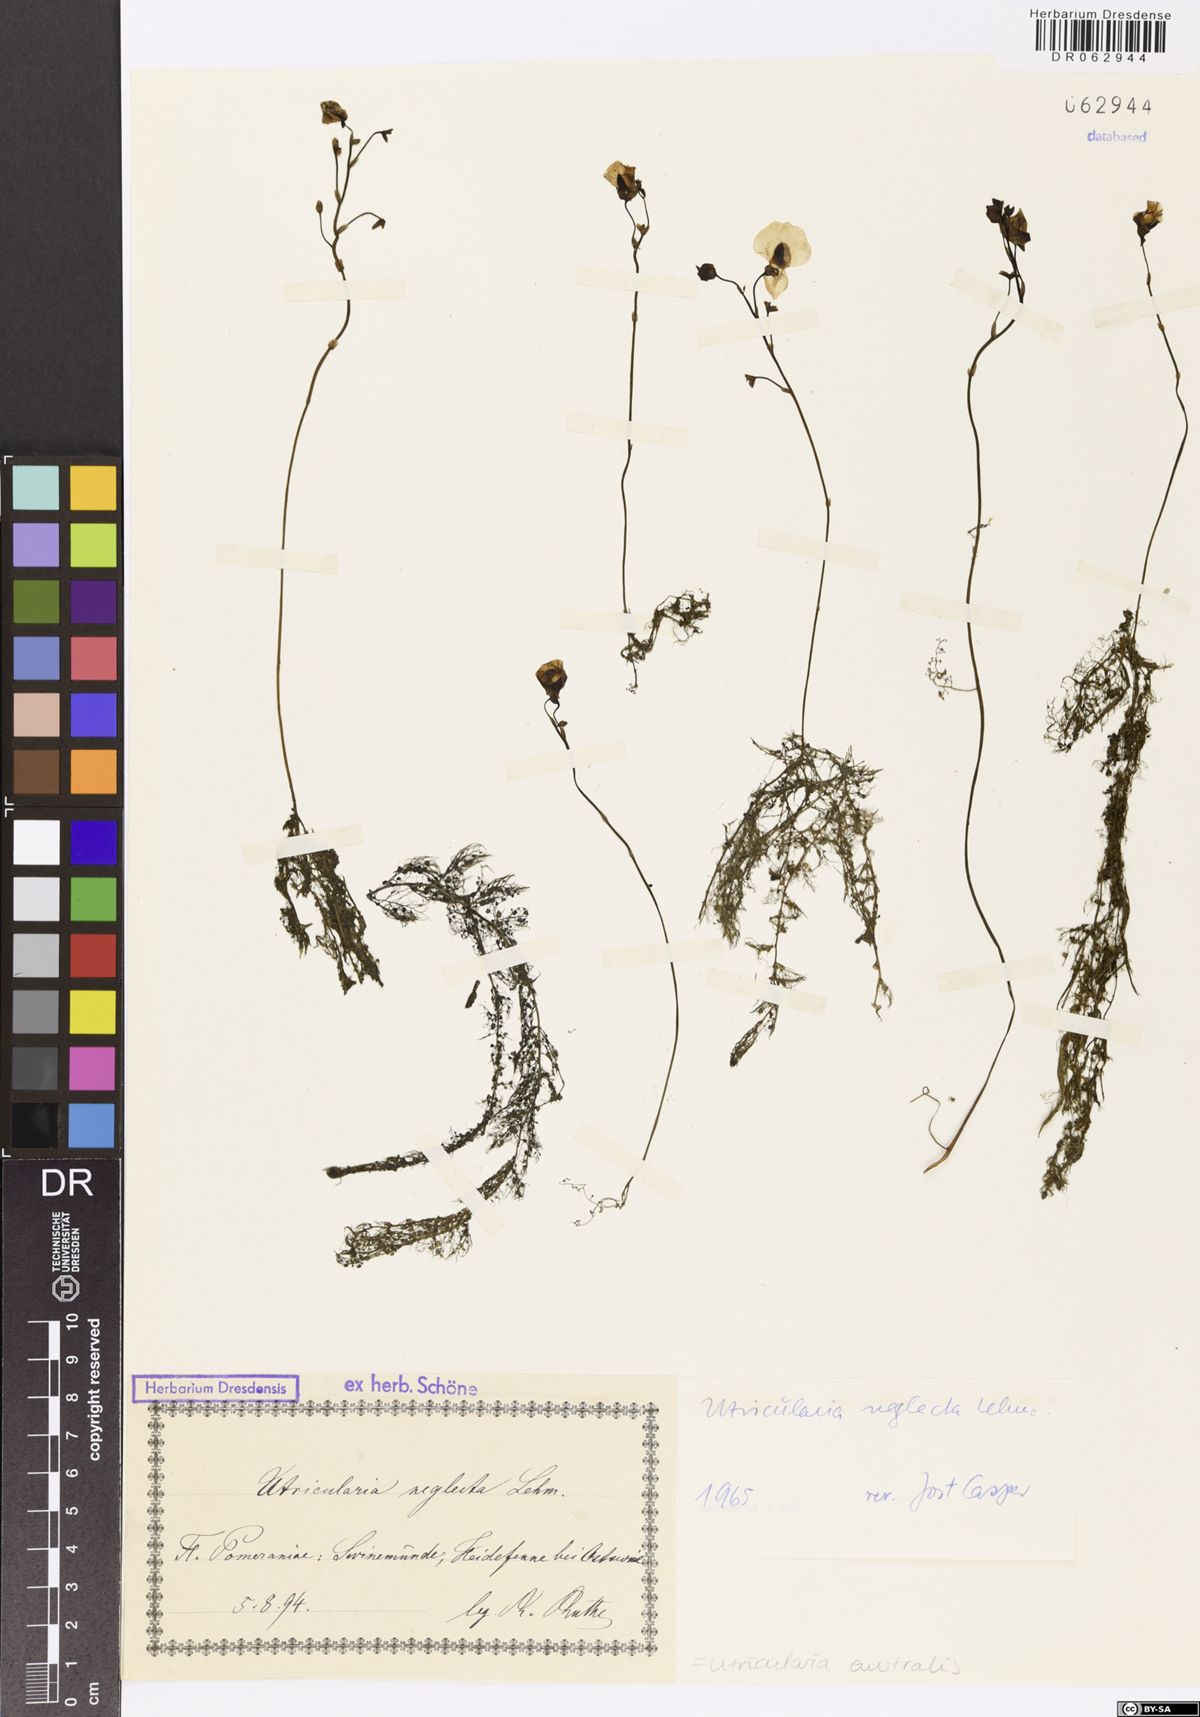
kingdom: Plantae
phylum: Tracheophyta
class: Magnoliopsida
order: Lamiales
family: Lentibulariaceae
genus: Utricularia
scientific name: Utricularia australis
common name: Bladderwort
